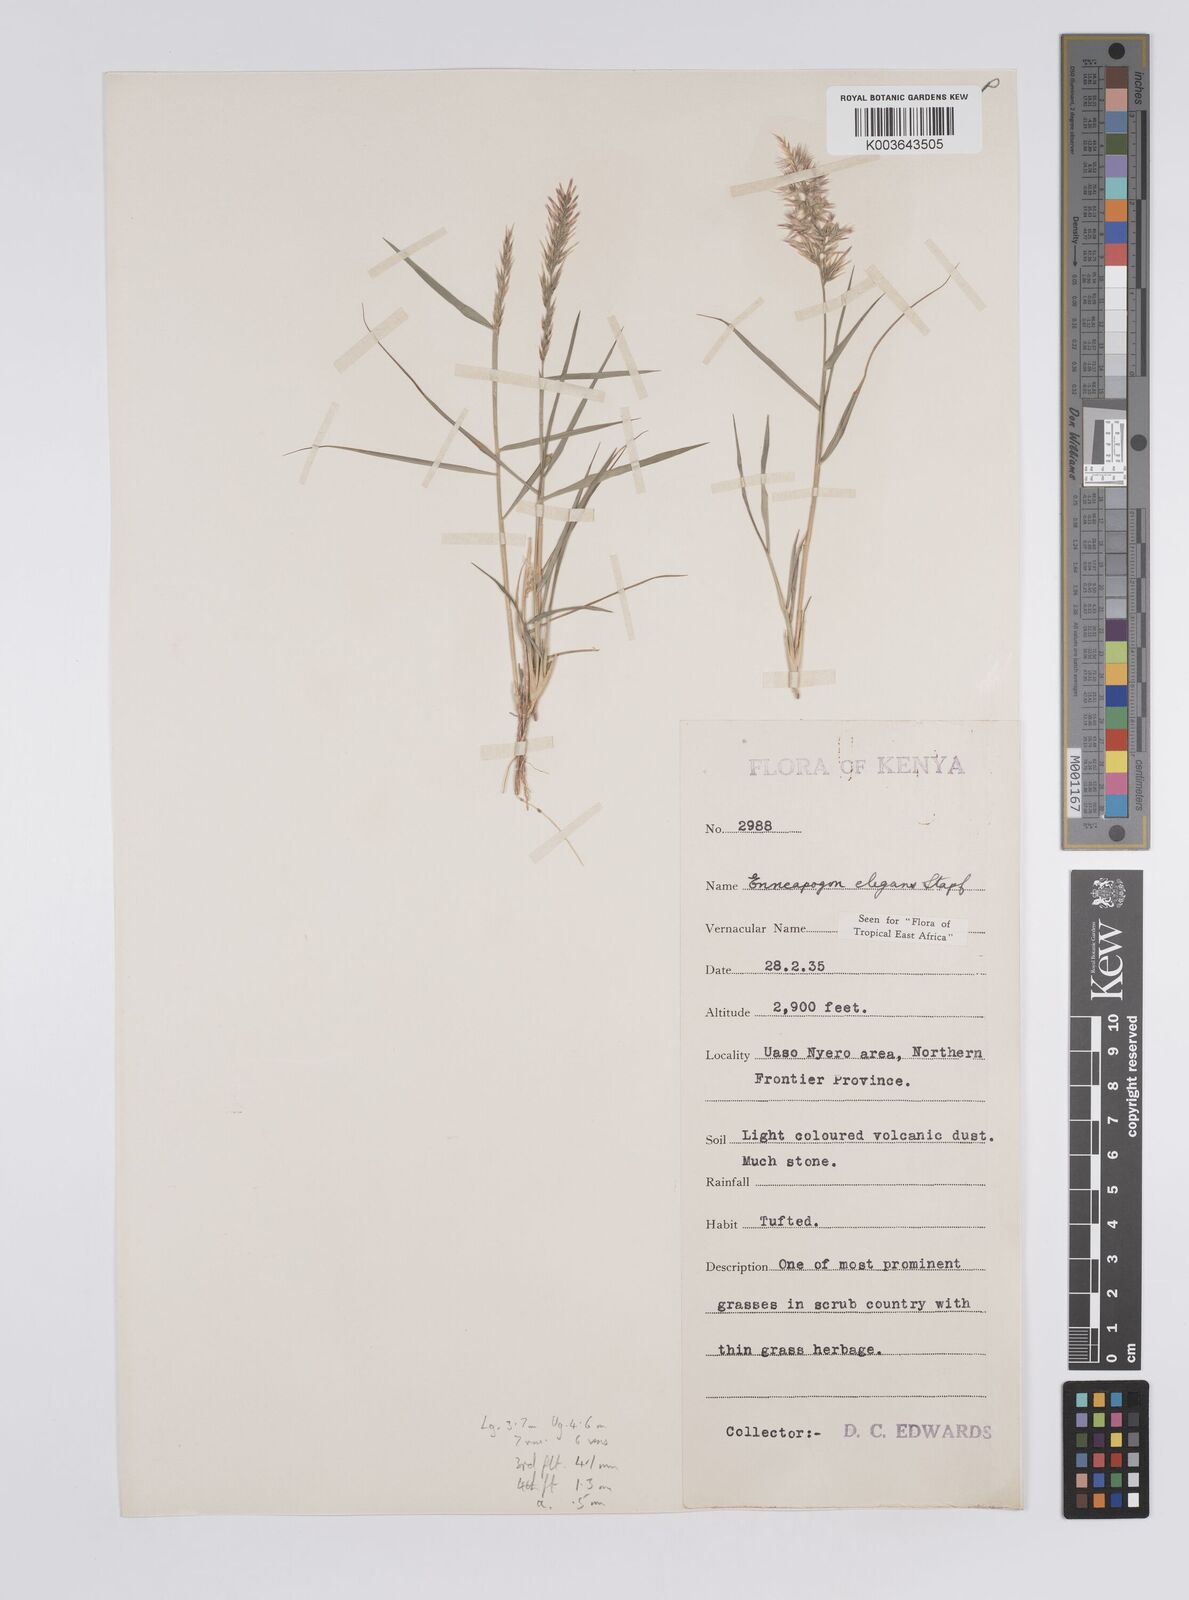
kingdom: Plantae
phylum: Tracheophyta
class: Liliopsida
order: Poales
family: Poaceae
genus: Enneapogon
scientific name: Enneapogon persicus
